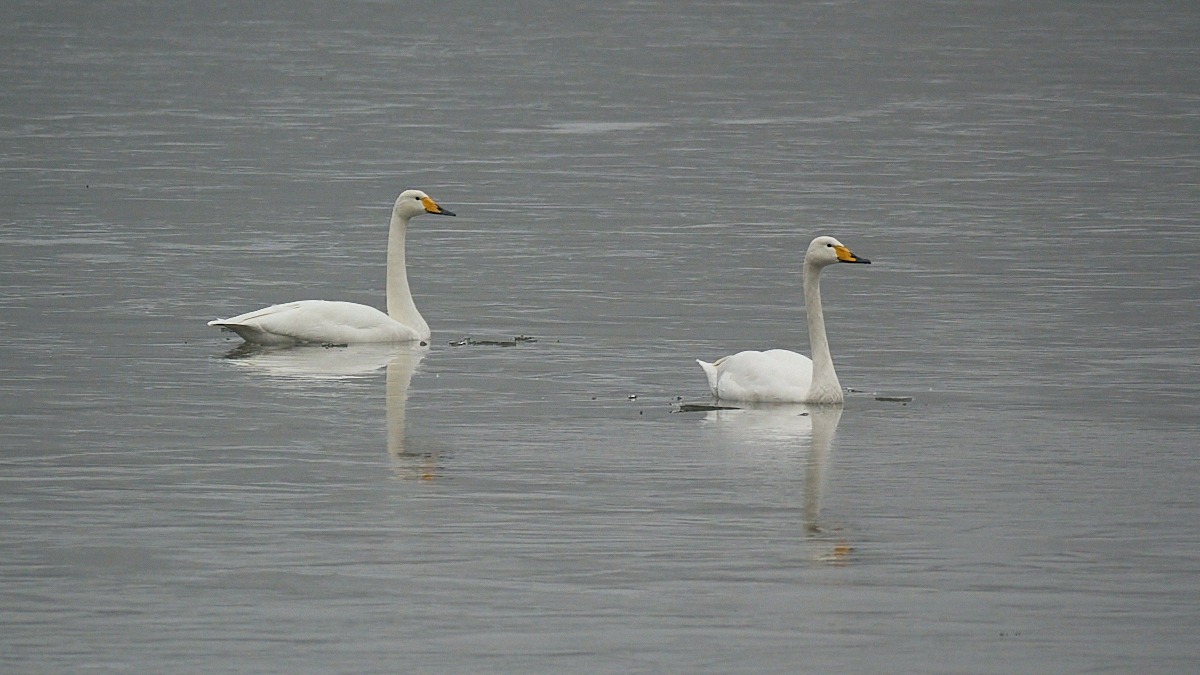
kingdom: Animalia
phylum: Chordata
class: Aves
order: Anseriformes
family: Anatidae
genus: Cygnus
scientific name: Cygnus cygnus
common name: Sangsvane
